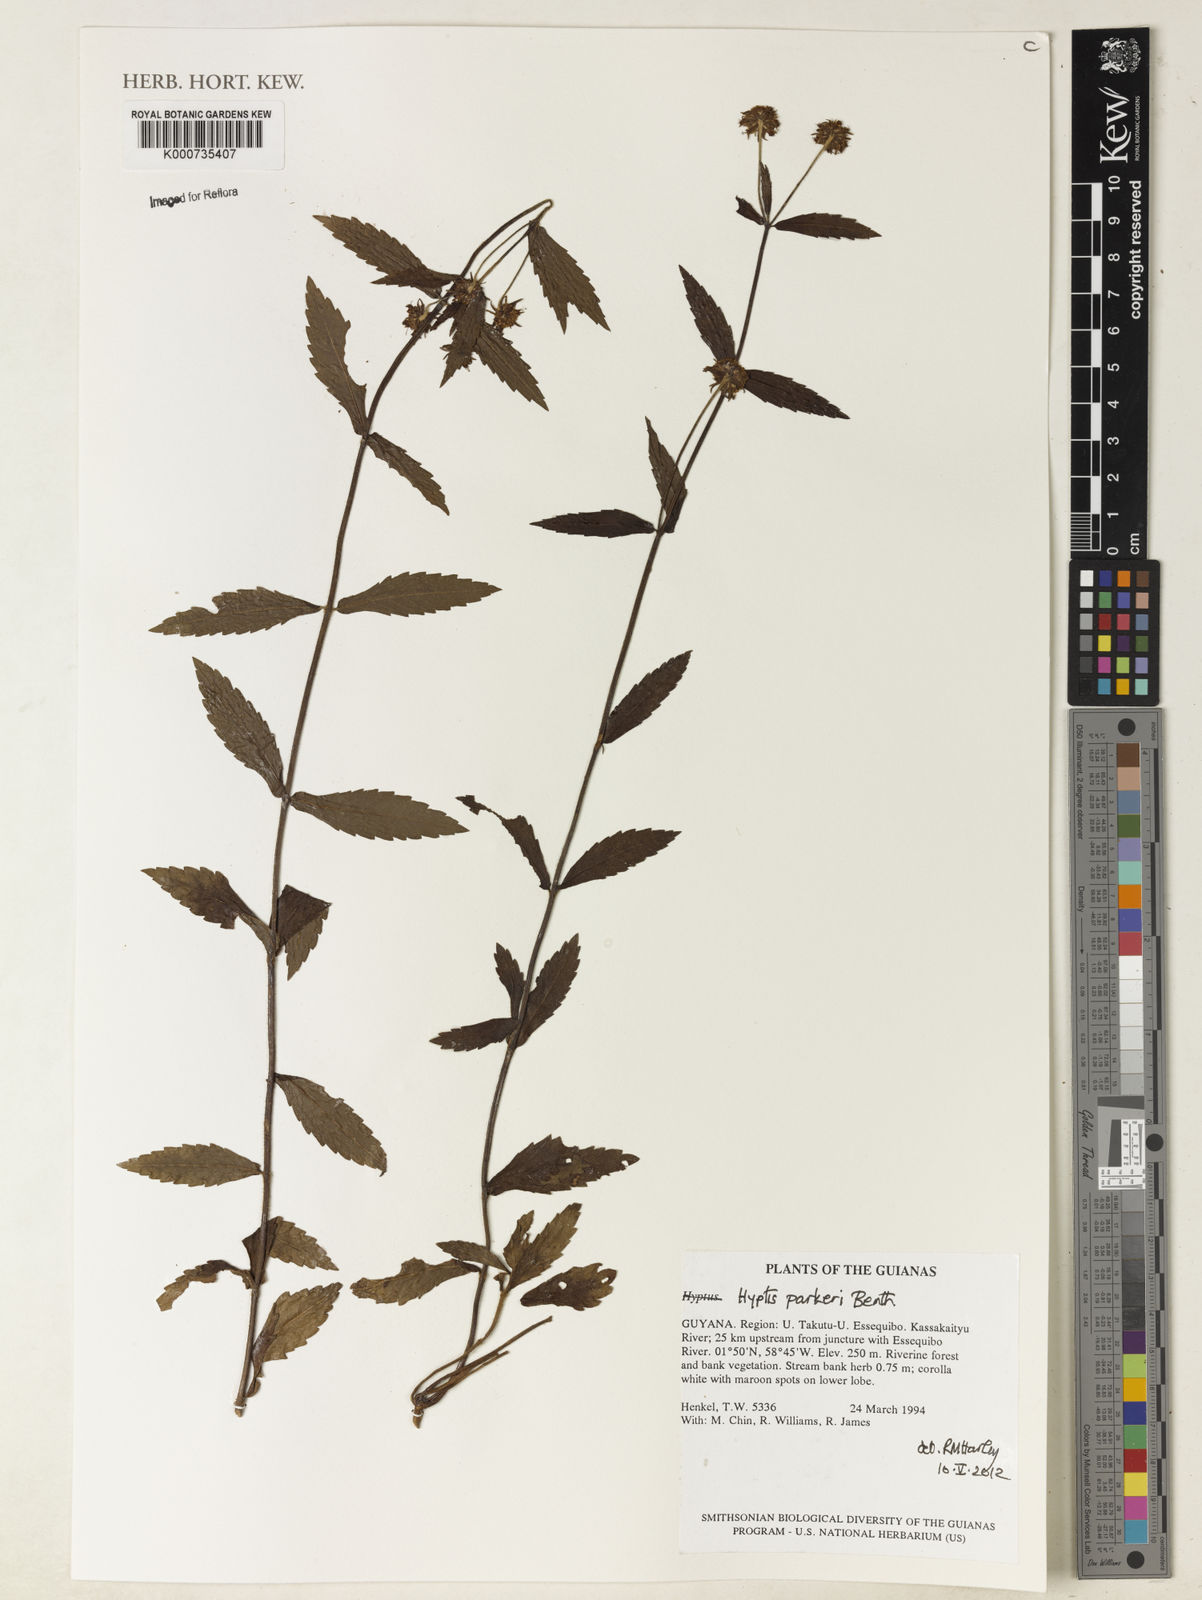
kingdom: Plantae
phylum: Tracheophyta
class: Magnoliopsida
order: Lamiales
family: Lamiaceae
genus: Hyptis
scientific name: Hyptis parkeri
